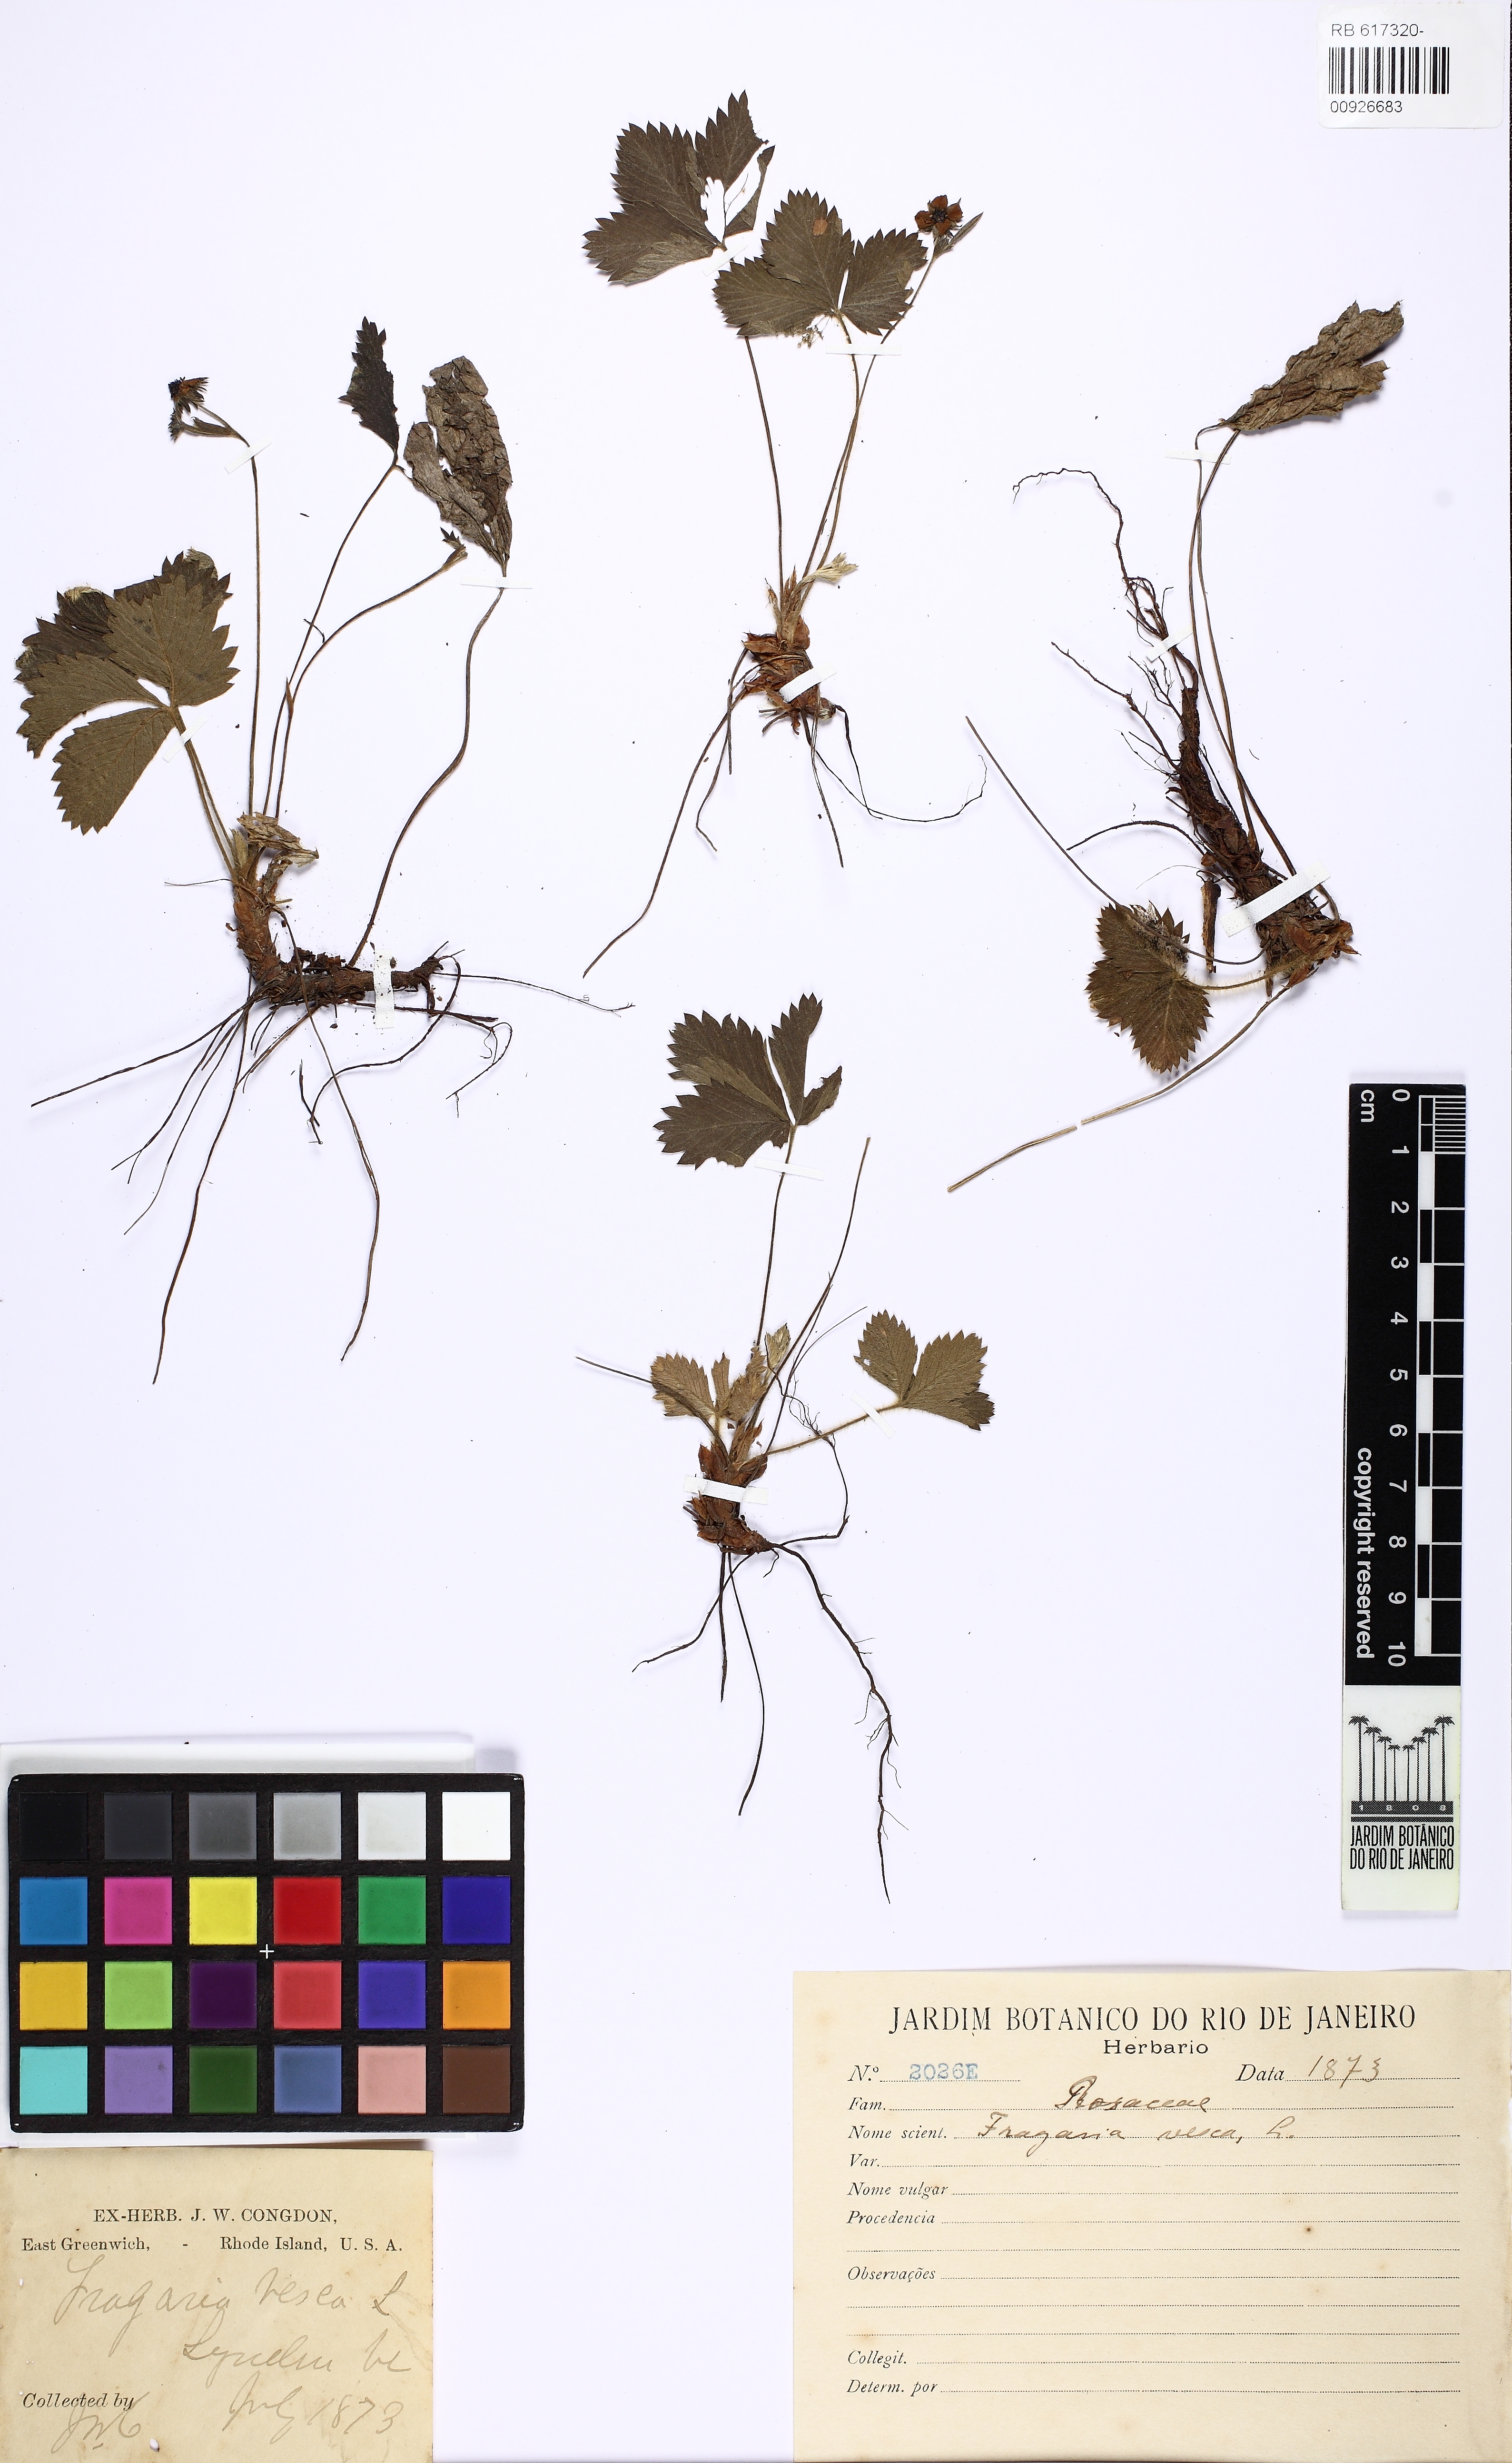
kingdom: Plantae
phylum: Tracheophyta
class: Magnoliopsida
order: Rosales
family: Rosaceae
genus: Fragaria
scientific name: Fragaria vesca
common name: Wild strawberry
